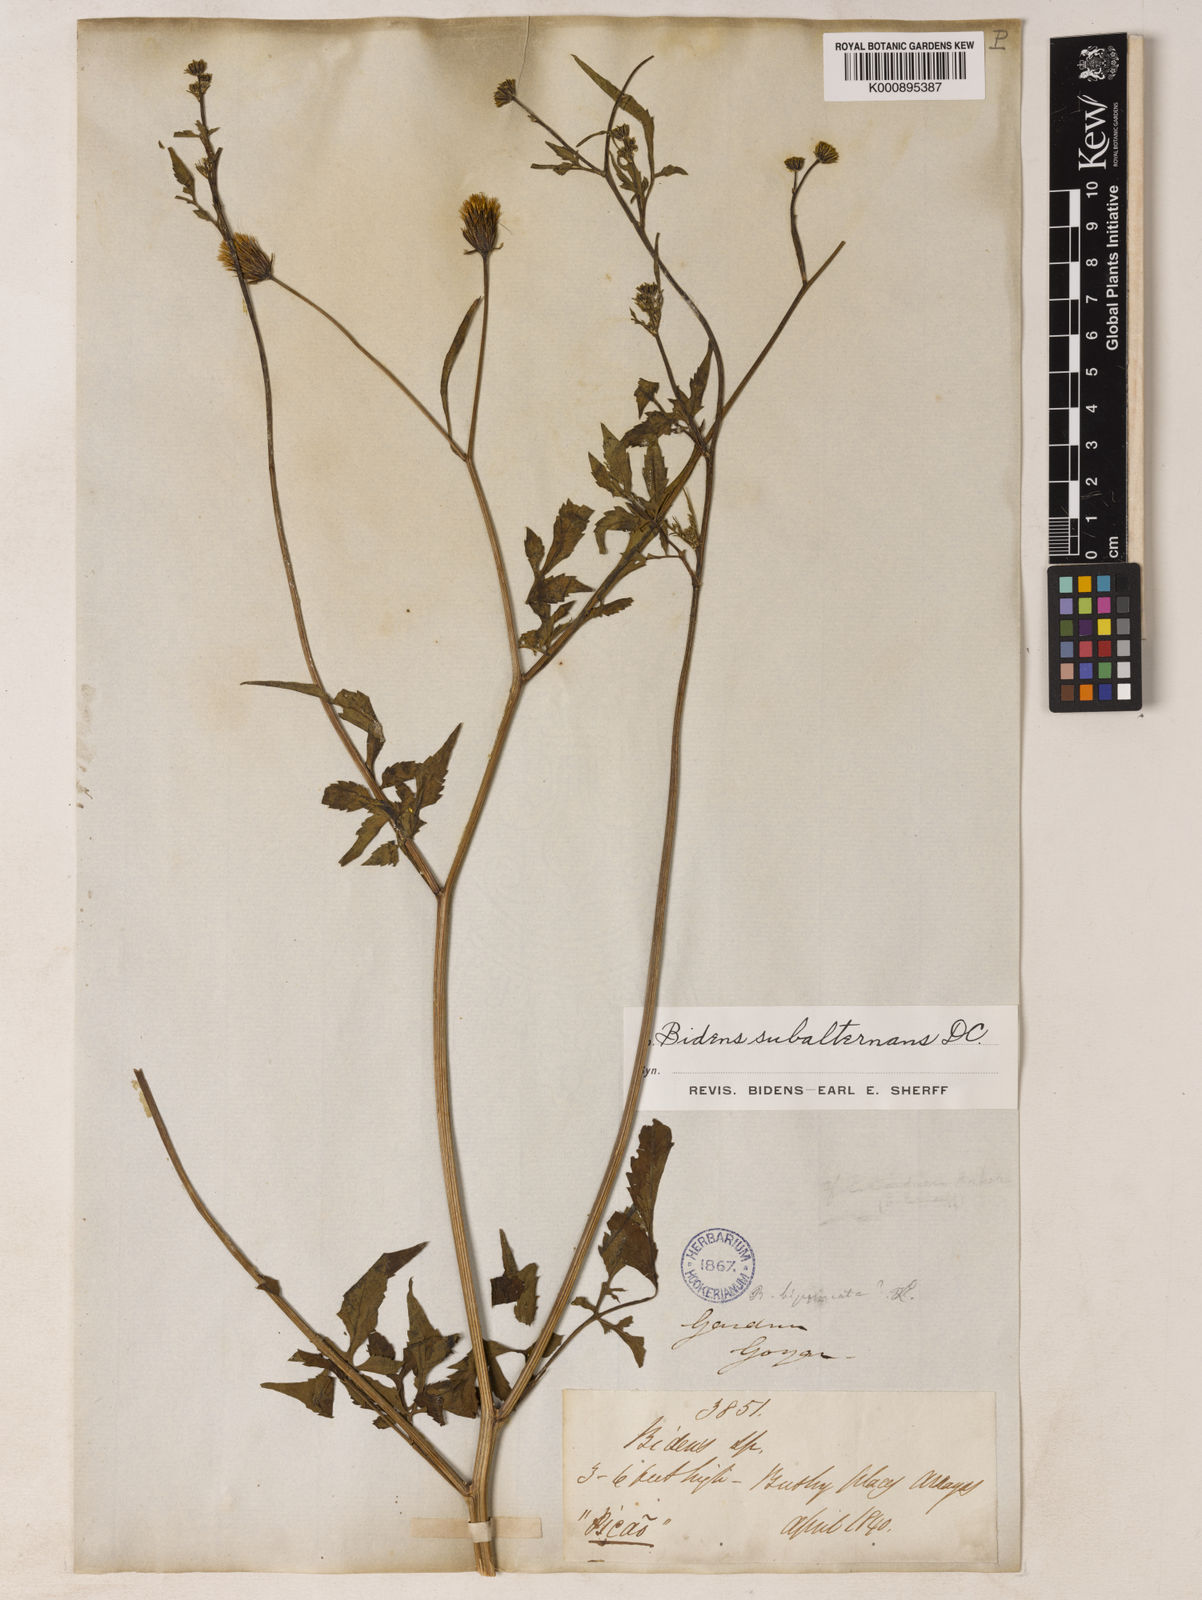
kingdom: Plantae
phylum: Tracheophyta
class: Magnoliopsida
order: Asterales
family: Asteraceae
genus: Bidens
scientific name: Bidens subalternans
